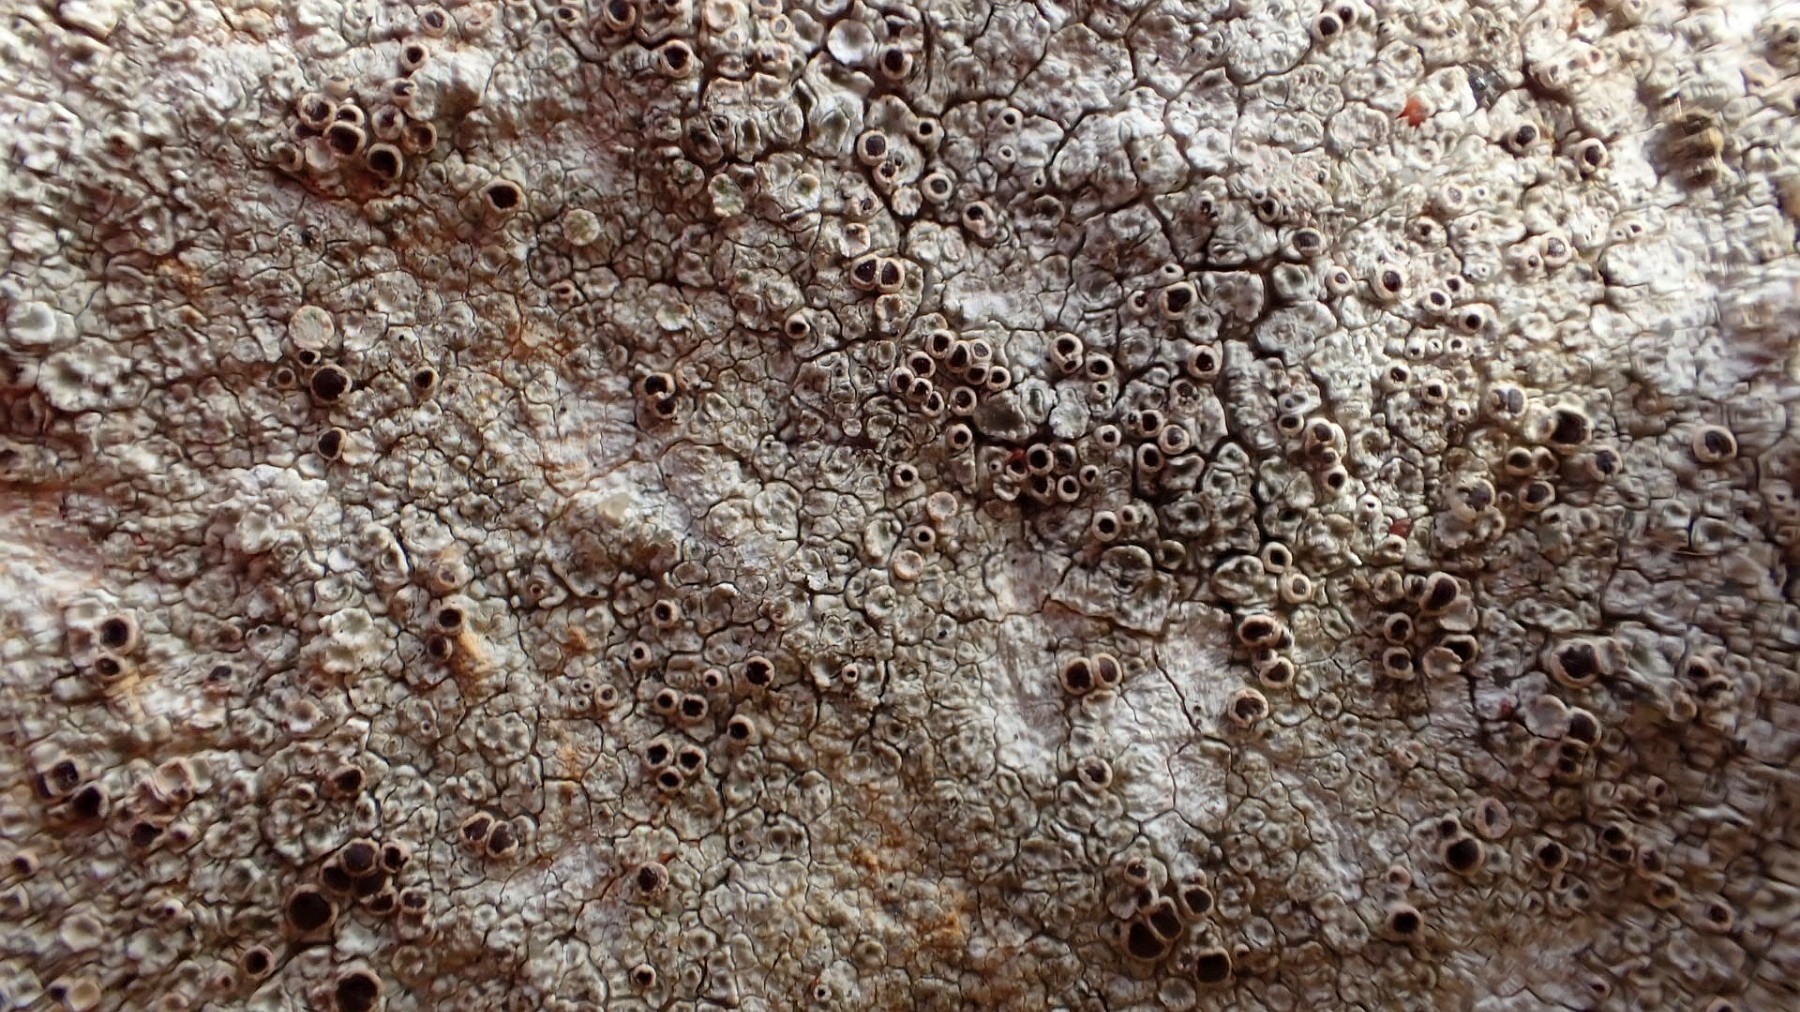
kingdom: Fungi
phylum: Ascomycota
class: Lecanoromycetes
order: Lecanorales
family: Lecanoraceae
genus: Lecanora
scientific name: Lecanora campestris
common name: mur-kantskivelav
